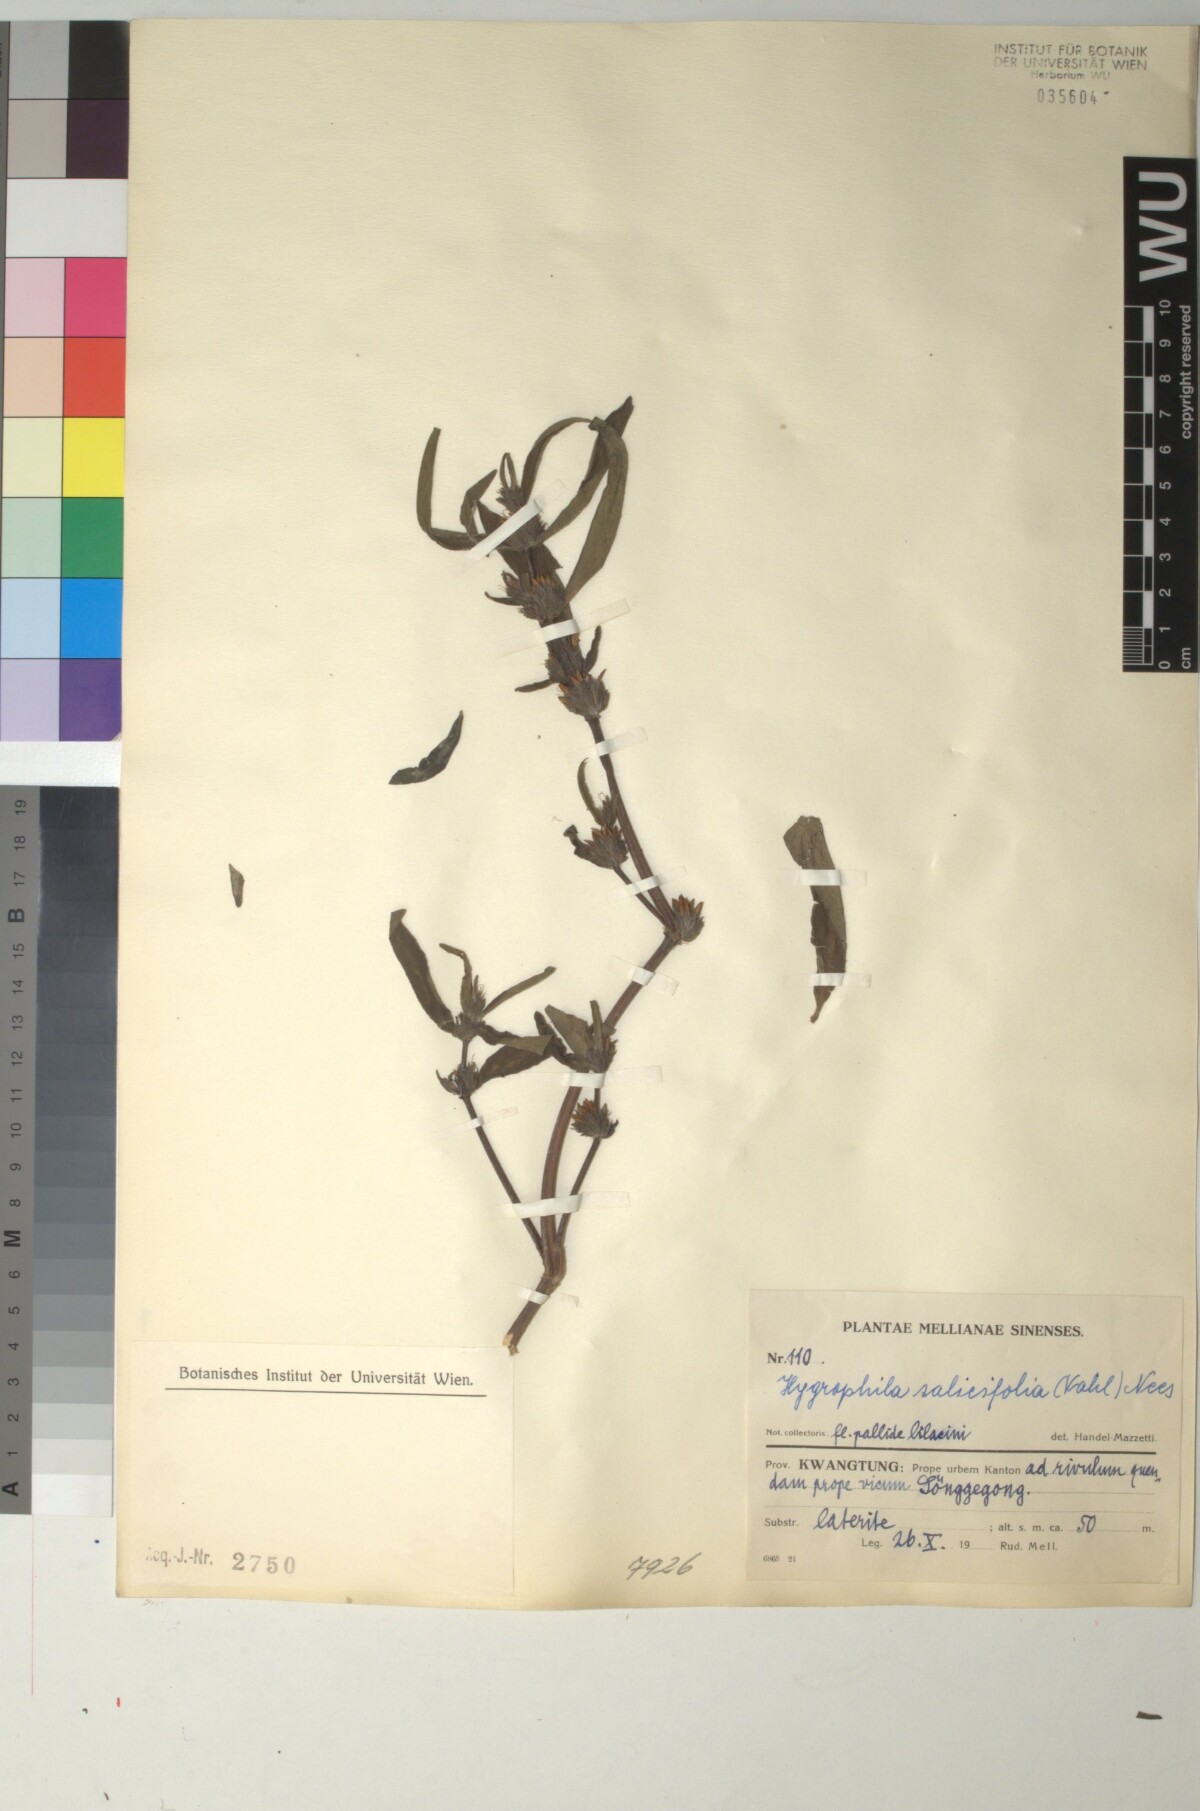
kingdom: Plantae
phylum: Tracheophyta
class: Magnoliopsida
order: Lamiales
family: Acanthaceae
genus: Hygrophila
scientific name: Hygrophila ringens
